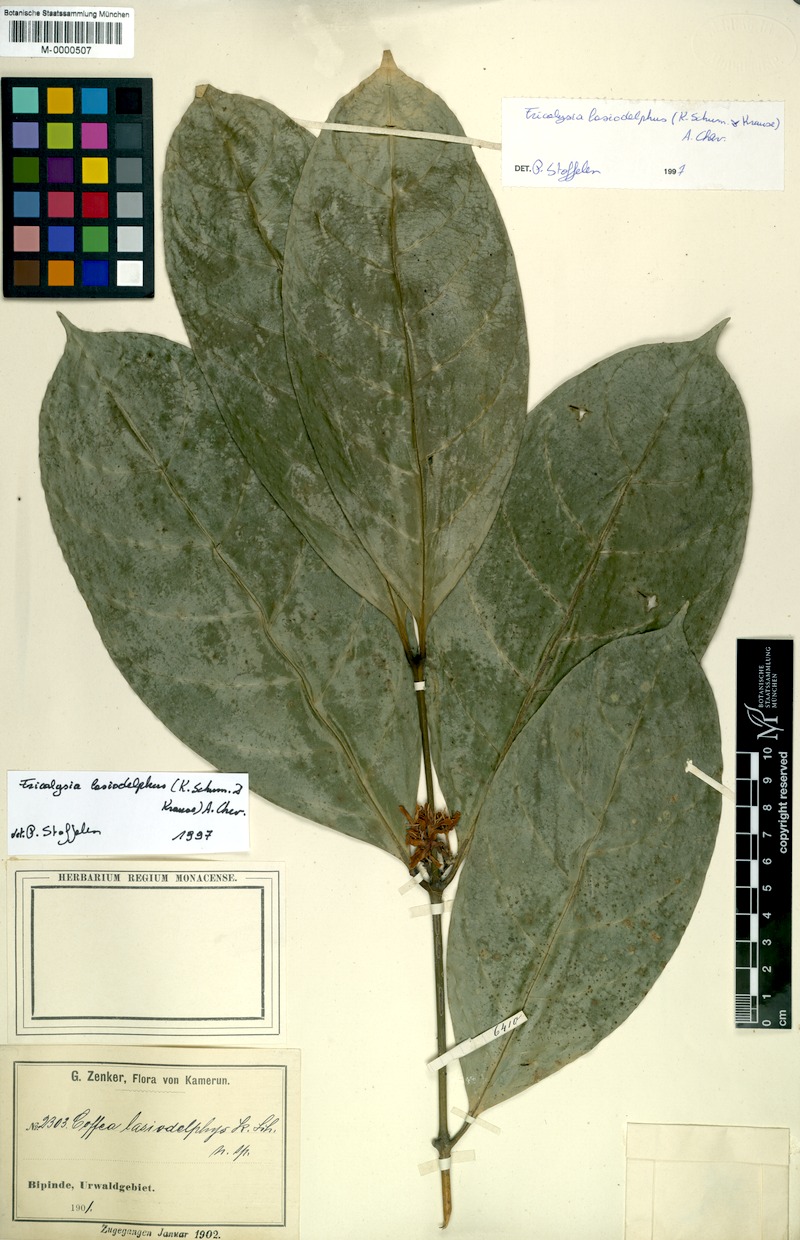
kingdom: Plantae
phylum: Tracheophyta
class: Magnoliopsida
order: Gentianales
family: Rubiaceae
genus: Tricalysia
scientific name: Tricalysia lasiodelphys
